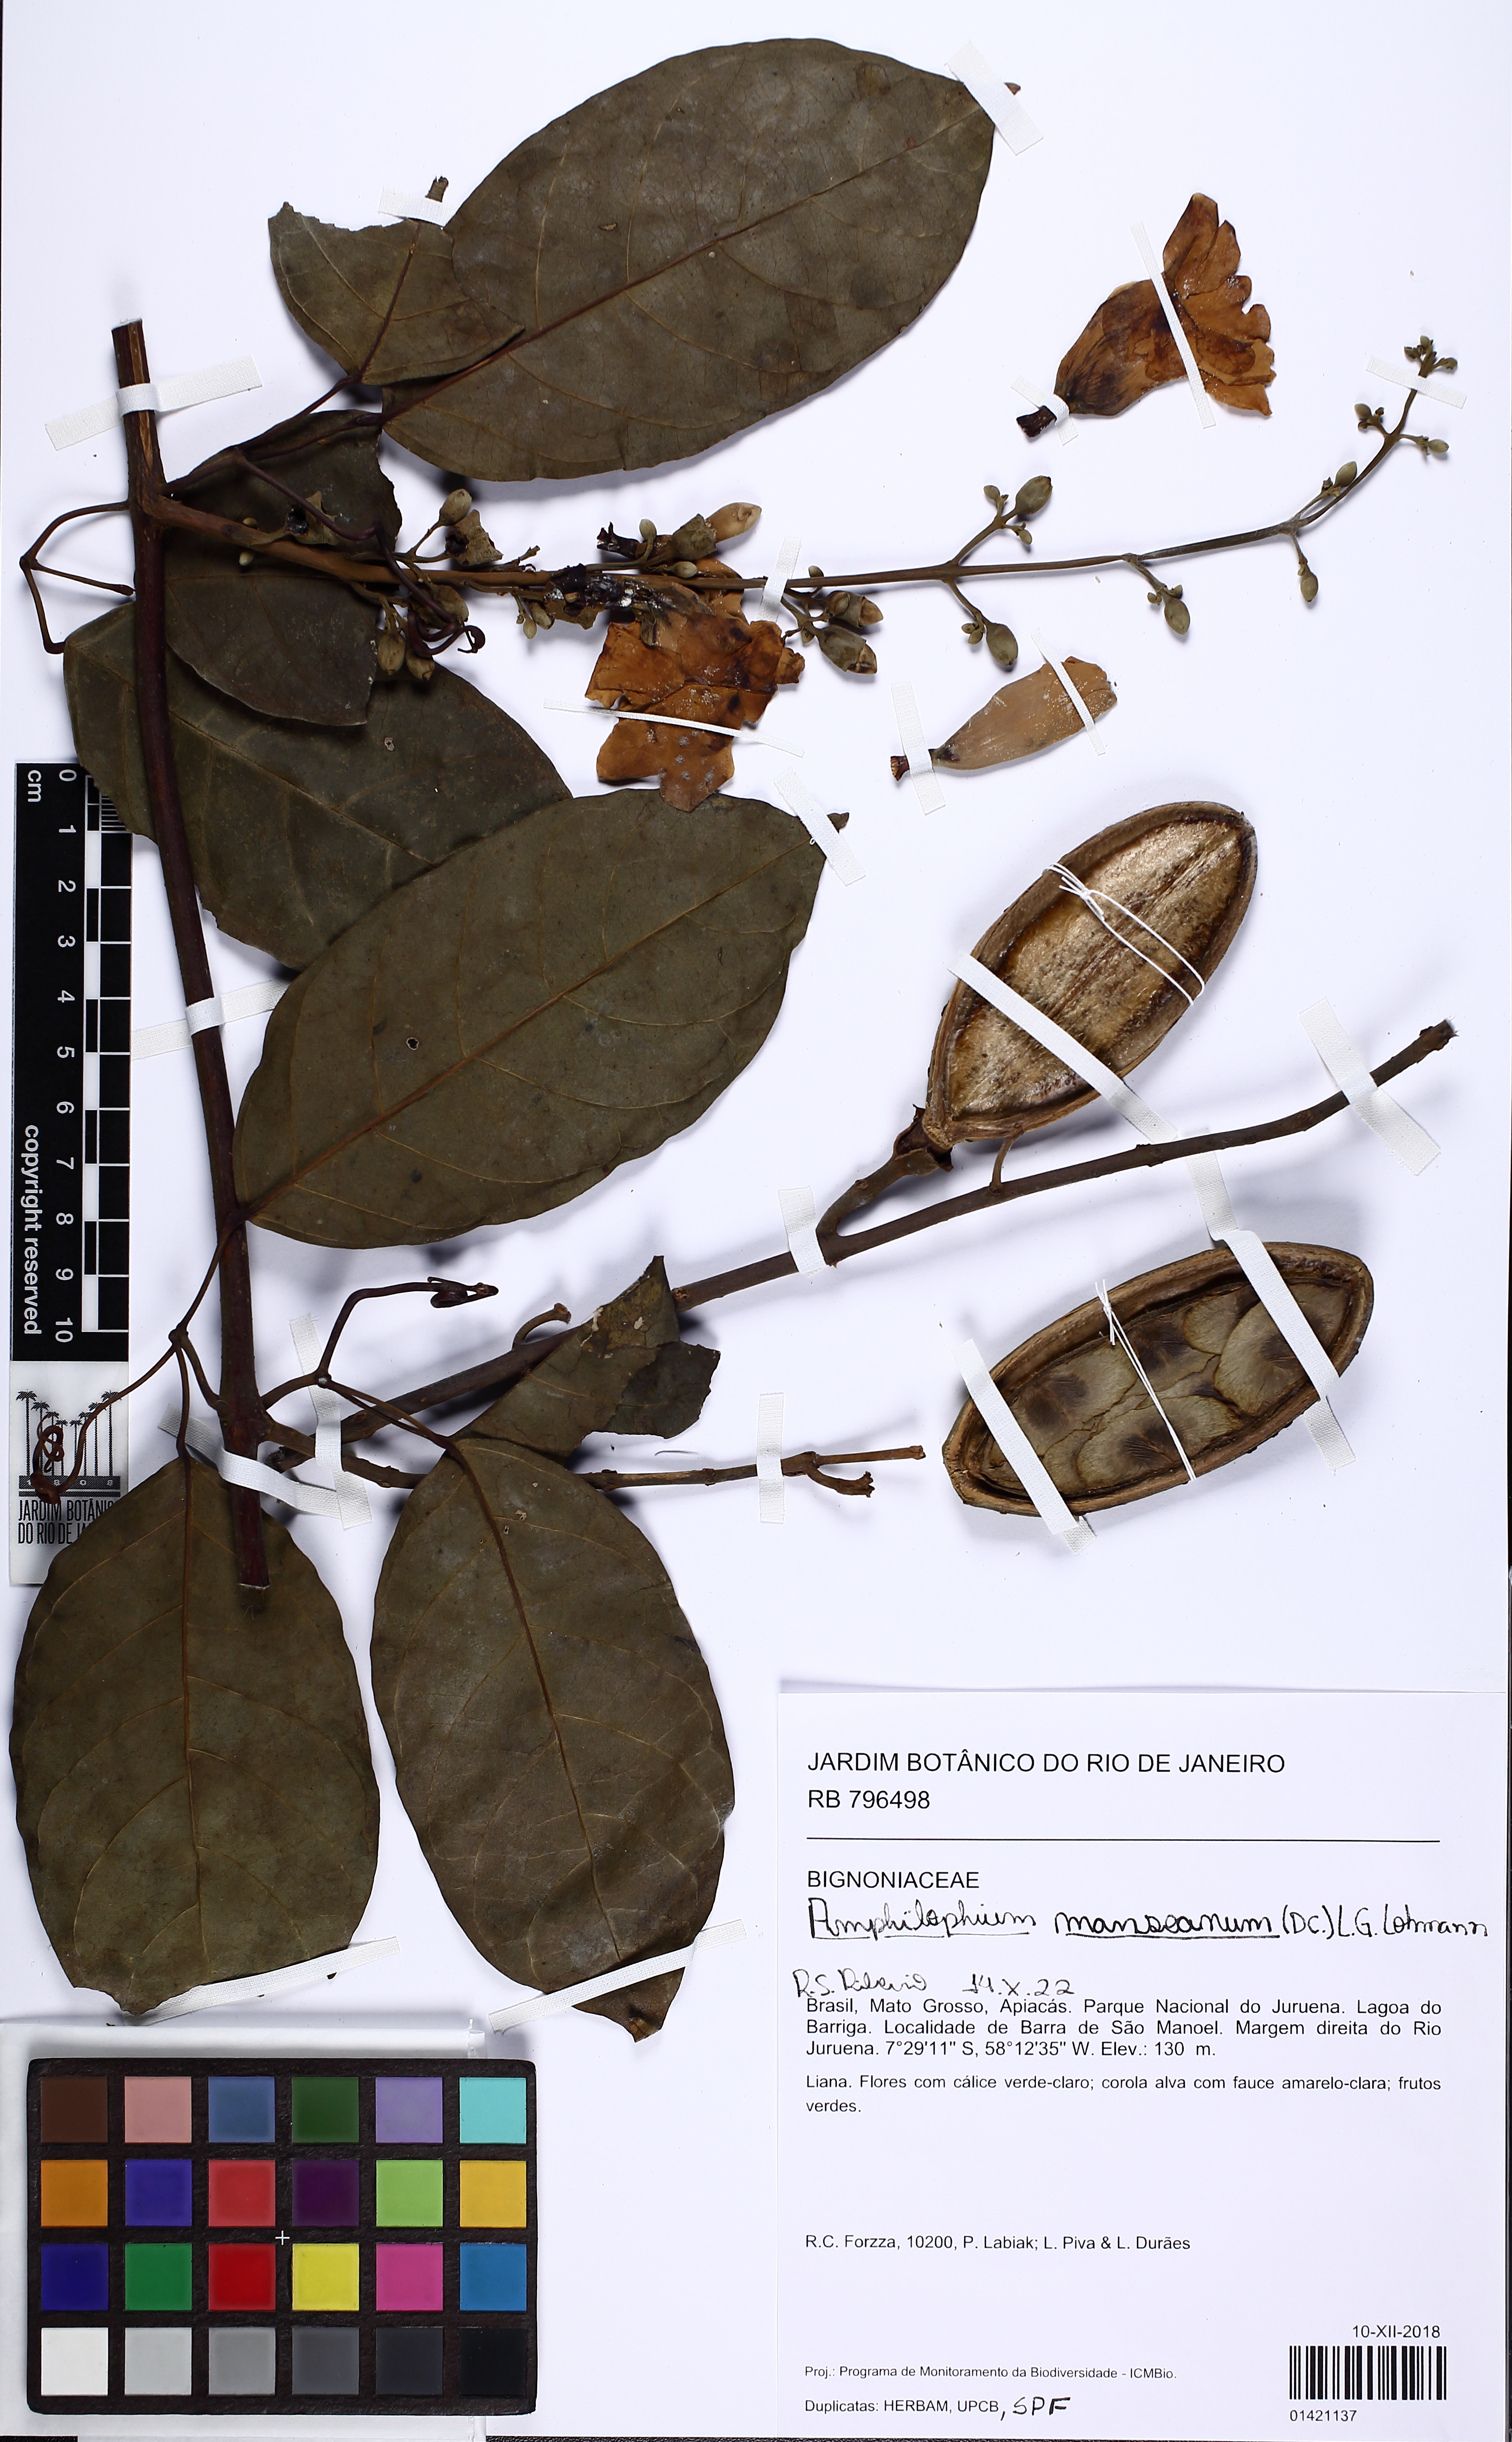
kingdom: Plantae
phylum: Tracheophyta
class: Magnoliopsida
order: Lamiales
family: Bignoniaceae
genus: Amphilophium
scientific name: Amphilophium mansoanum
